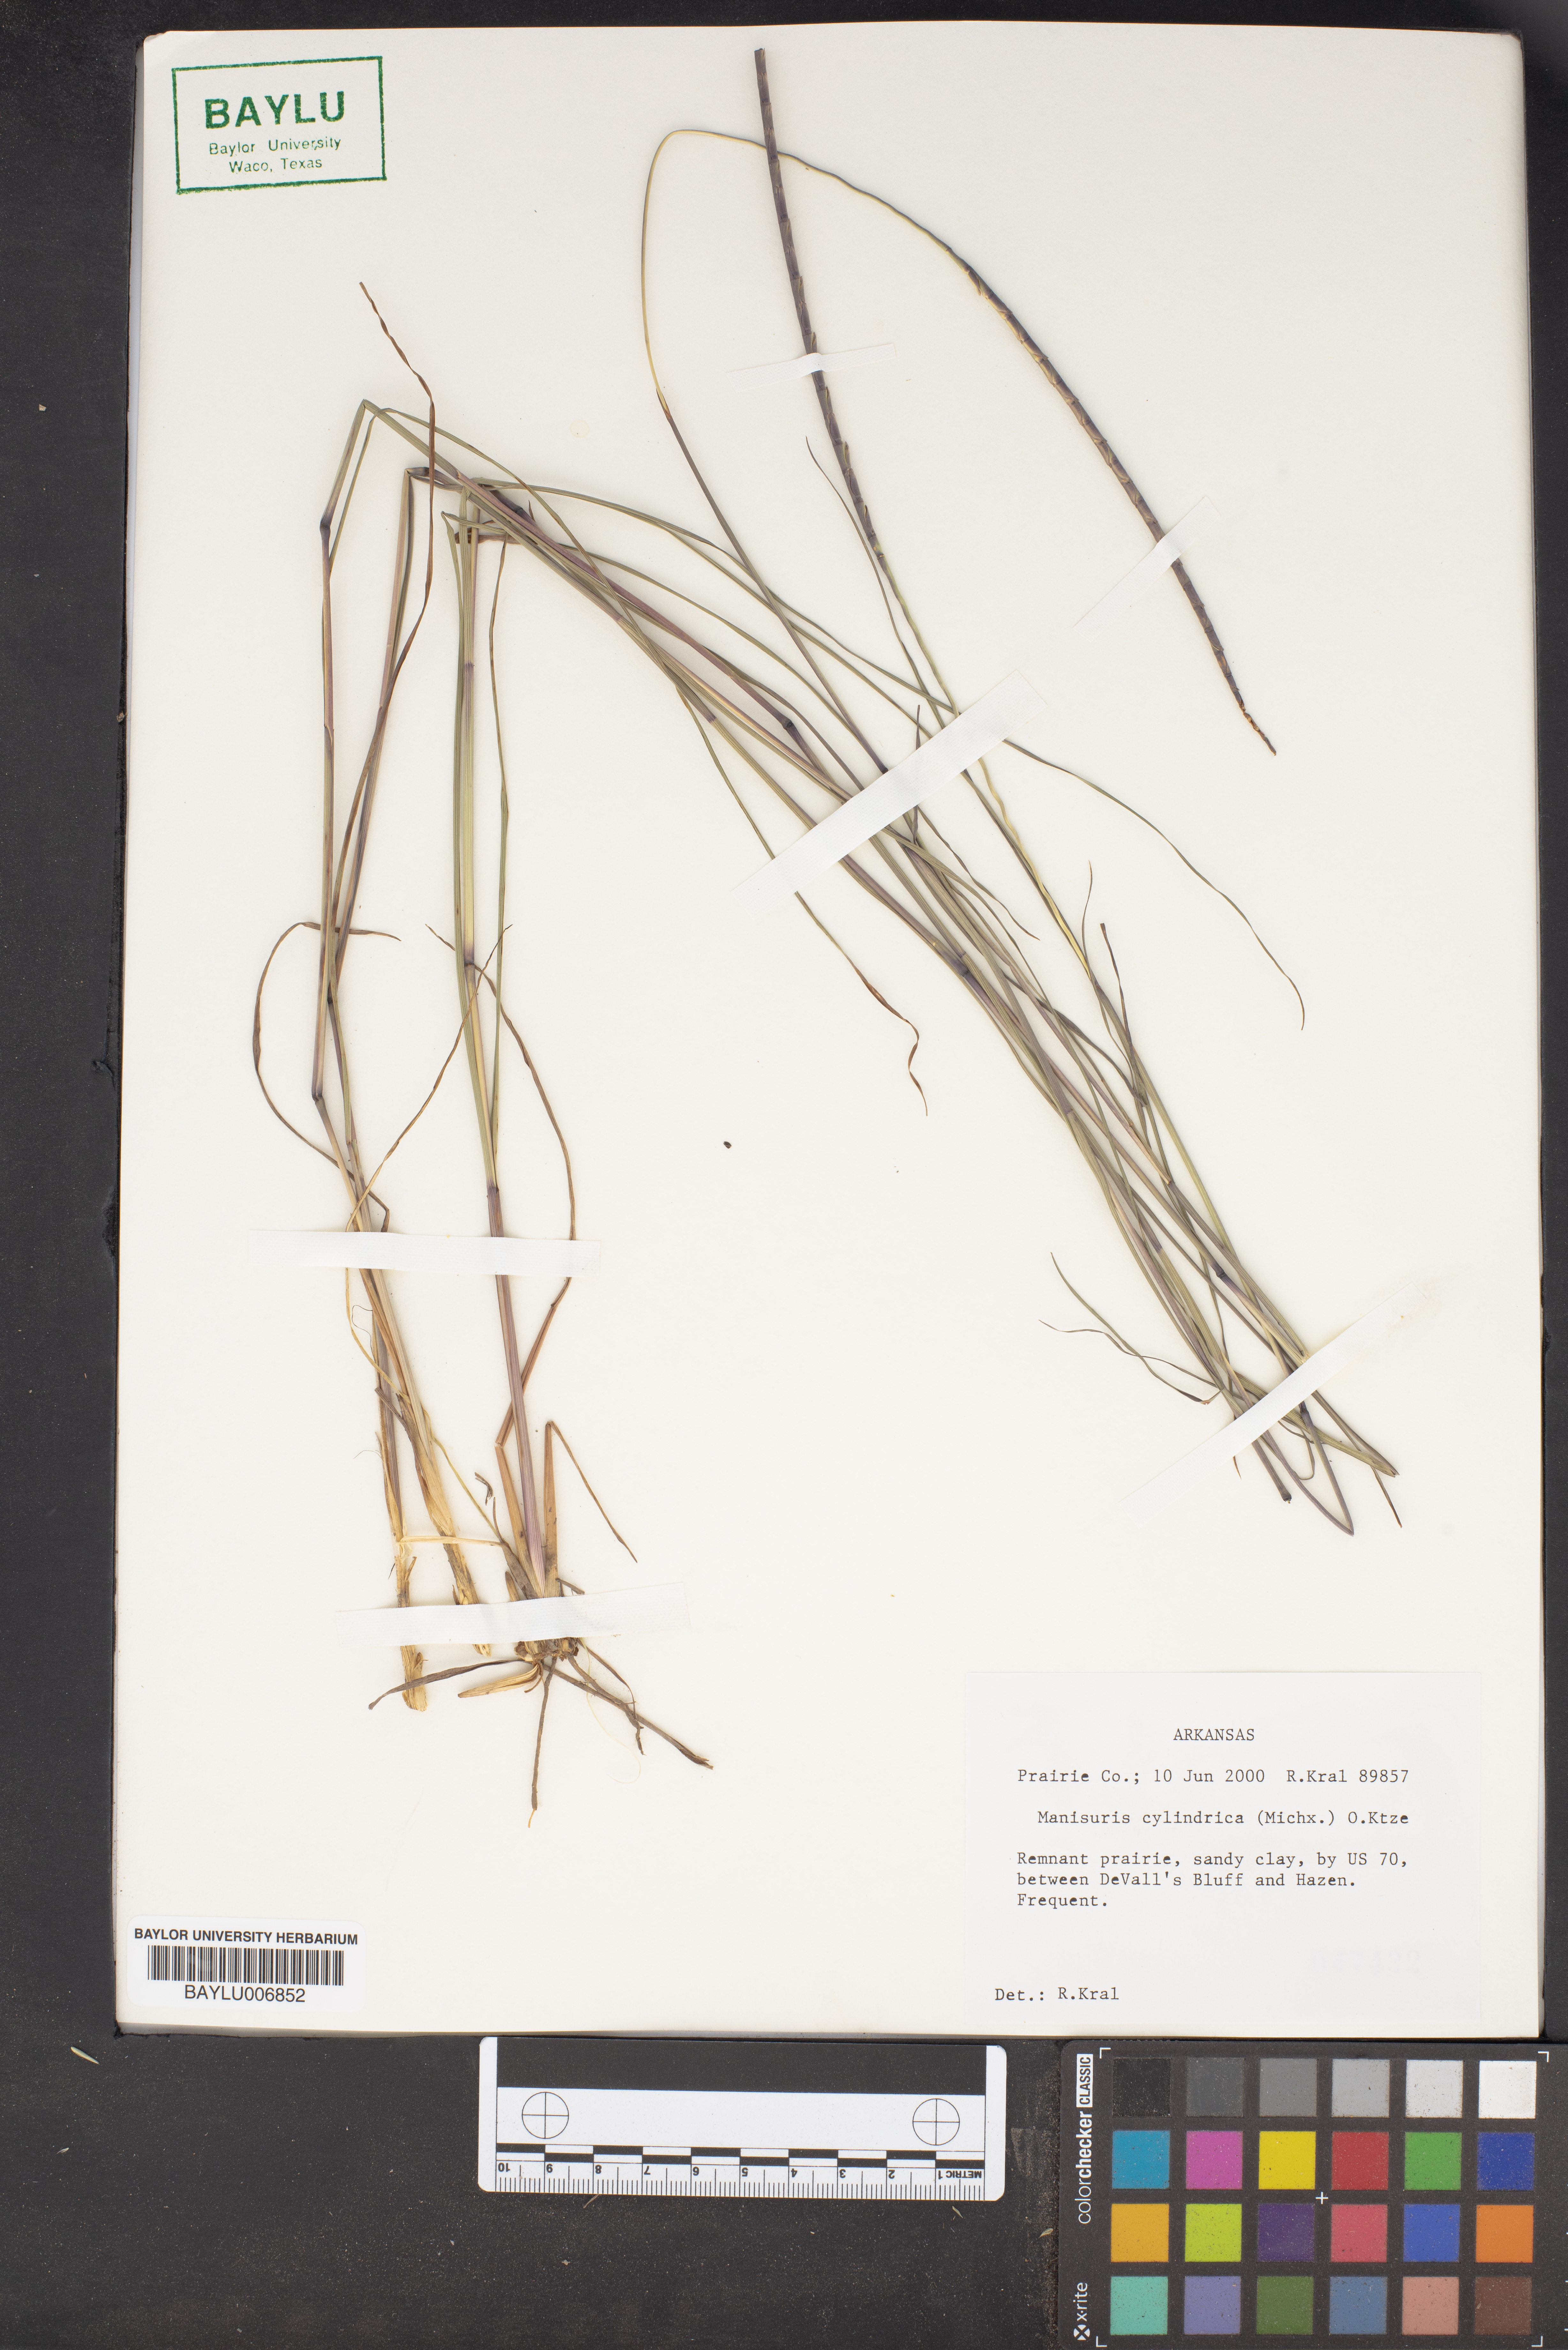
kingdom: Plantae
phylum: Tracheophyta
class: Liliopsida
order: Poales
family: Poaceae
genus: Rottboellia
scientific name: Rottboellia campestris
